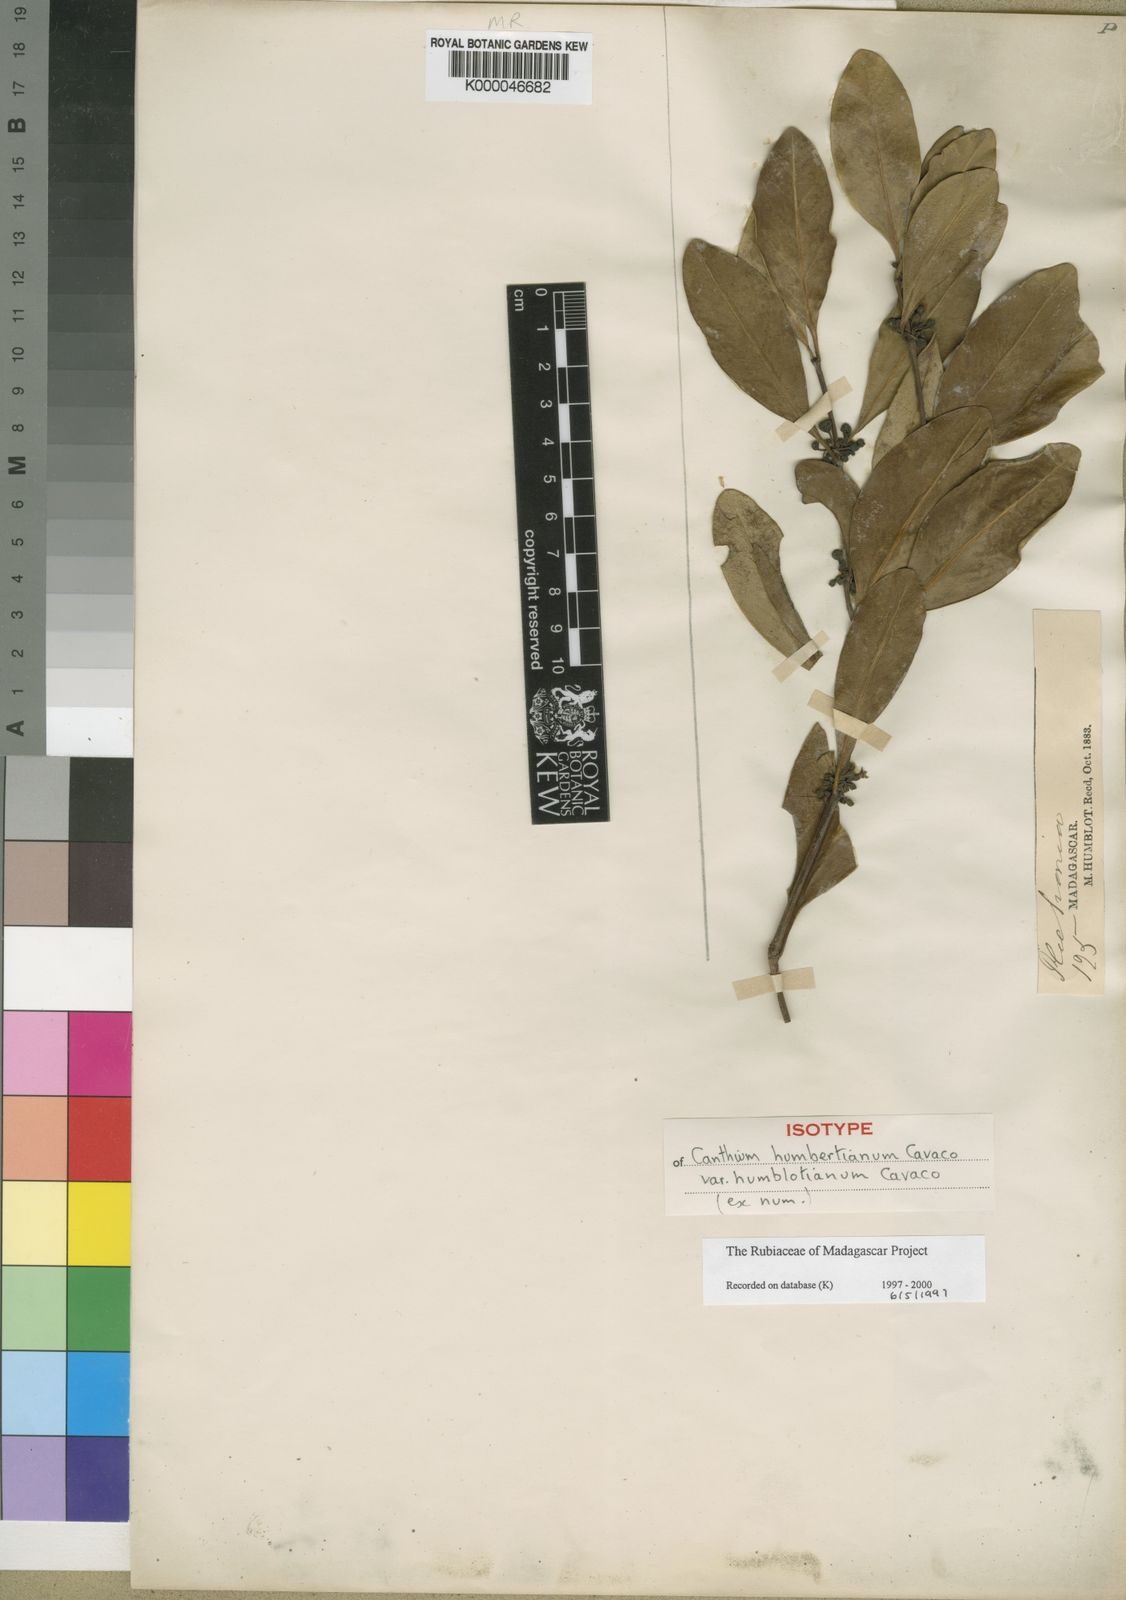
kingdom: Plantae
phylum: Tracheophyta
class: Magnoliopsida
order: Gentianales
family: Rubiaceae
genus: Peponidium
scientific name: Peponidium humbertianum
